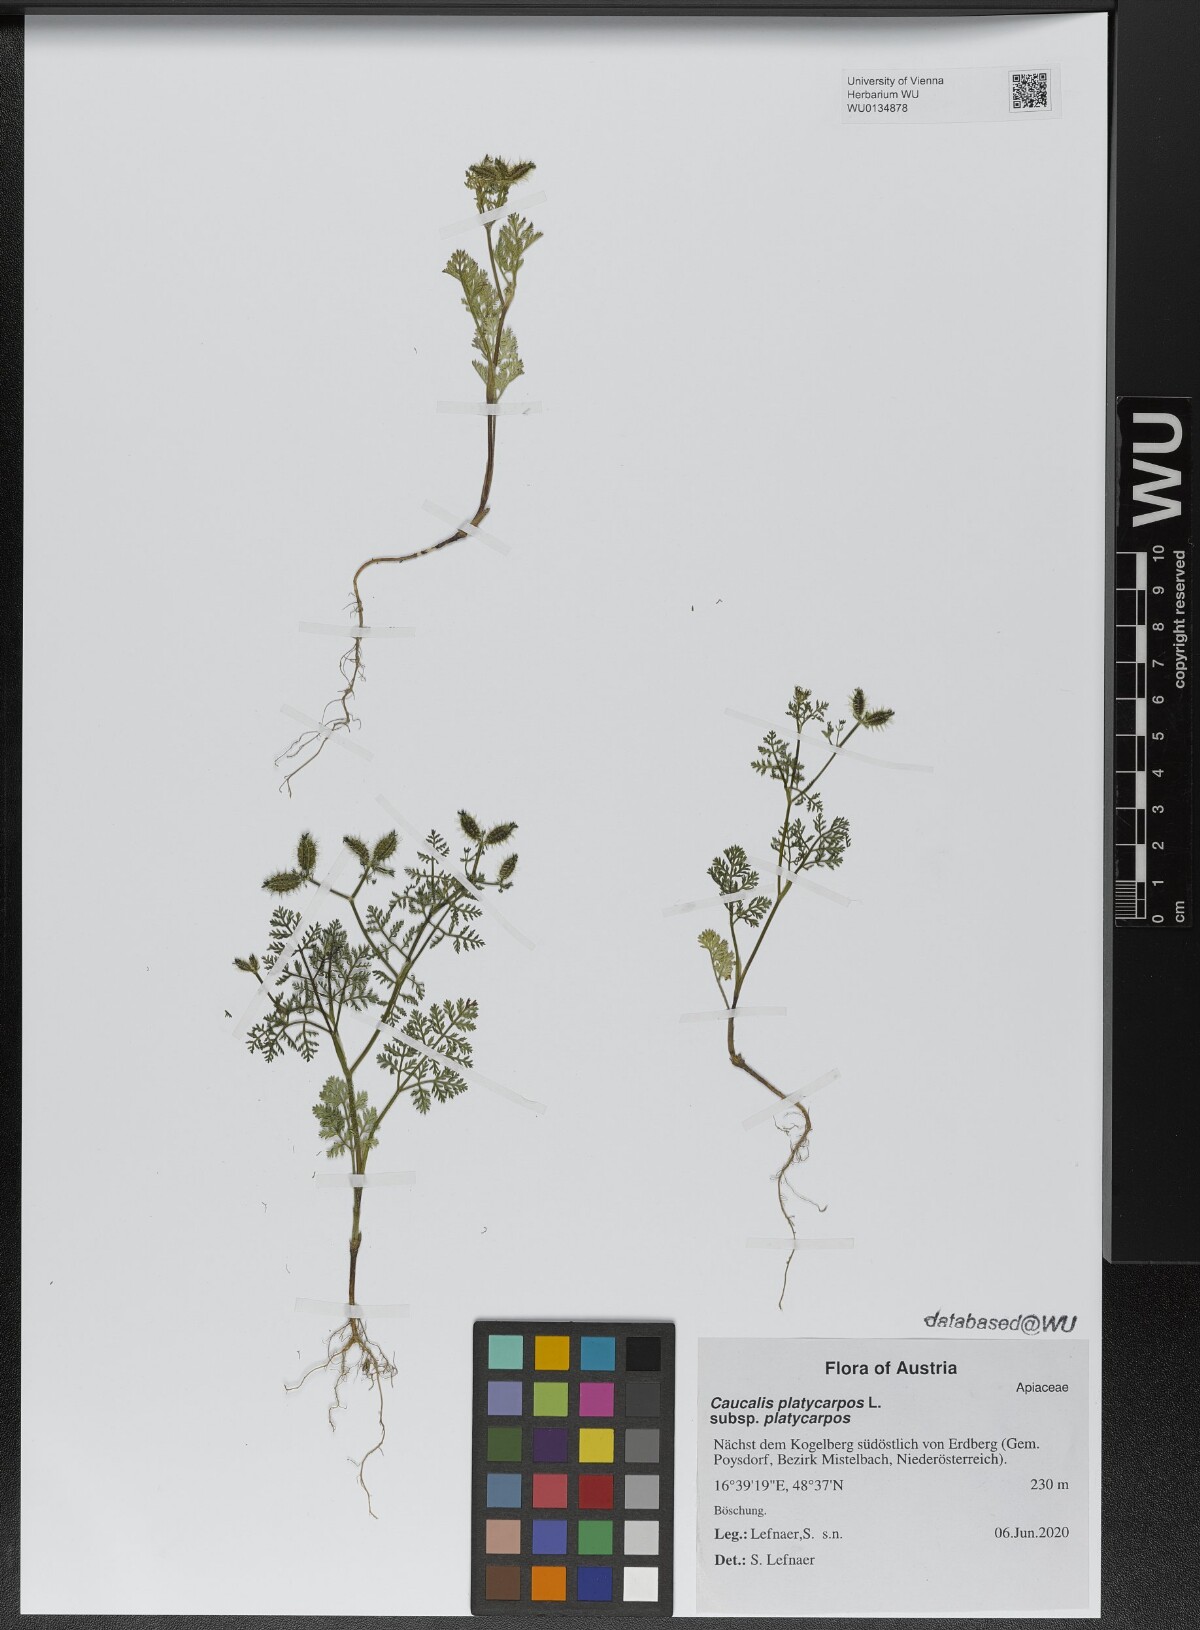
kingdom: Plantae
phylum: Tracheophyta
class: Magnoliopsida
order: Apiales
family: Apiaceae
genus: Caucalis
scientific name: Caucalis platycarpos
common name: Small bur-parsley
